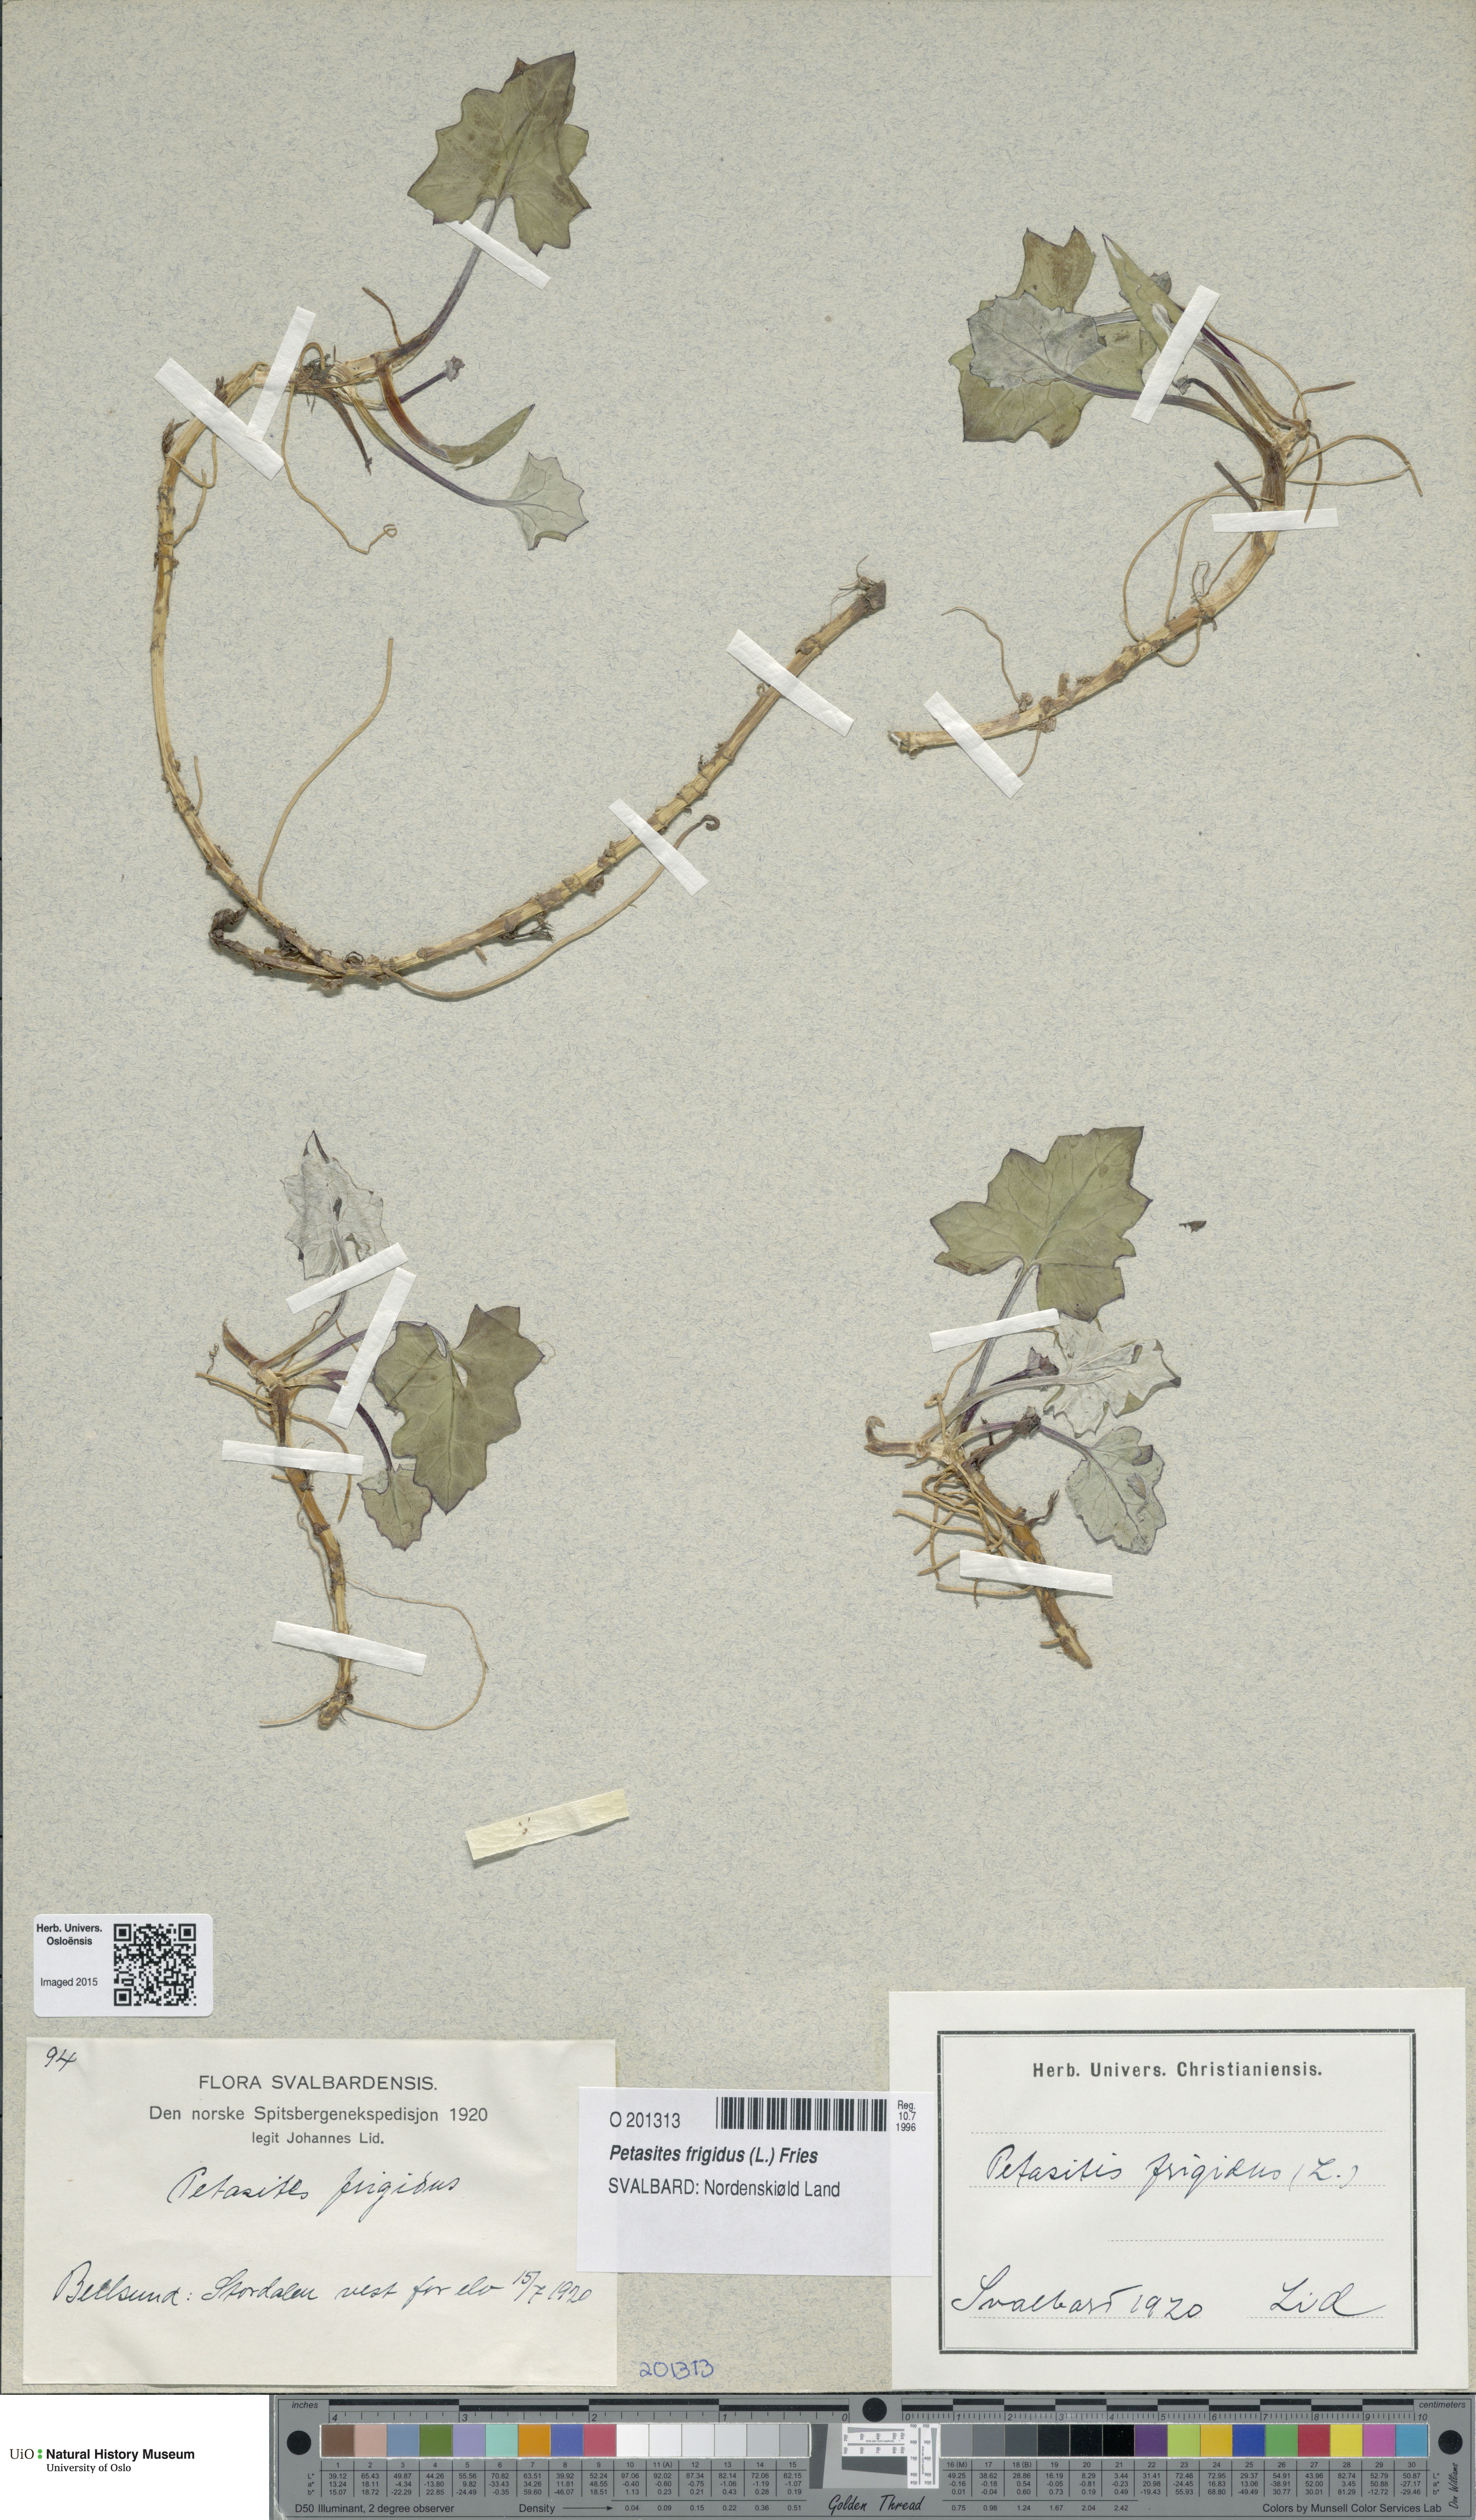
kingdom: Plantae
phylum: Tracheophyta
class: Magnoliopsida
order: Asterales
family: Asteraceae
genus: Petasites
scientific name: Petasites frigidus
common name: Arctic butterbur
